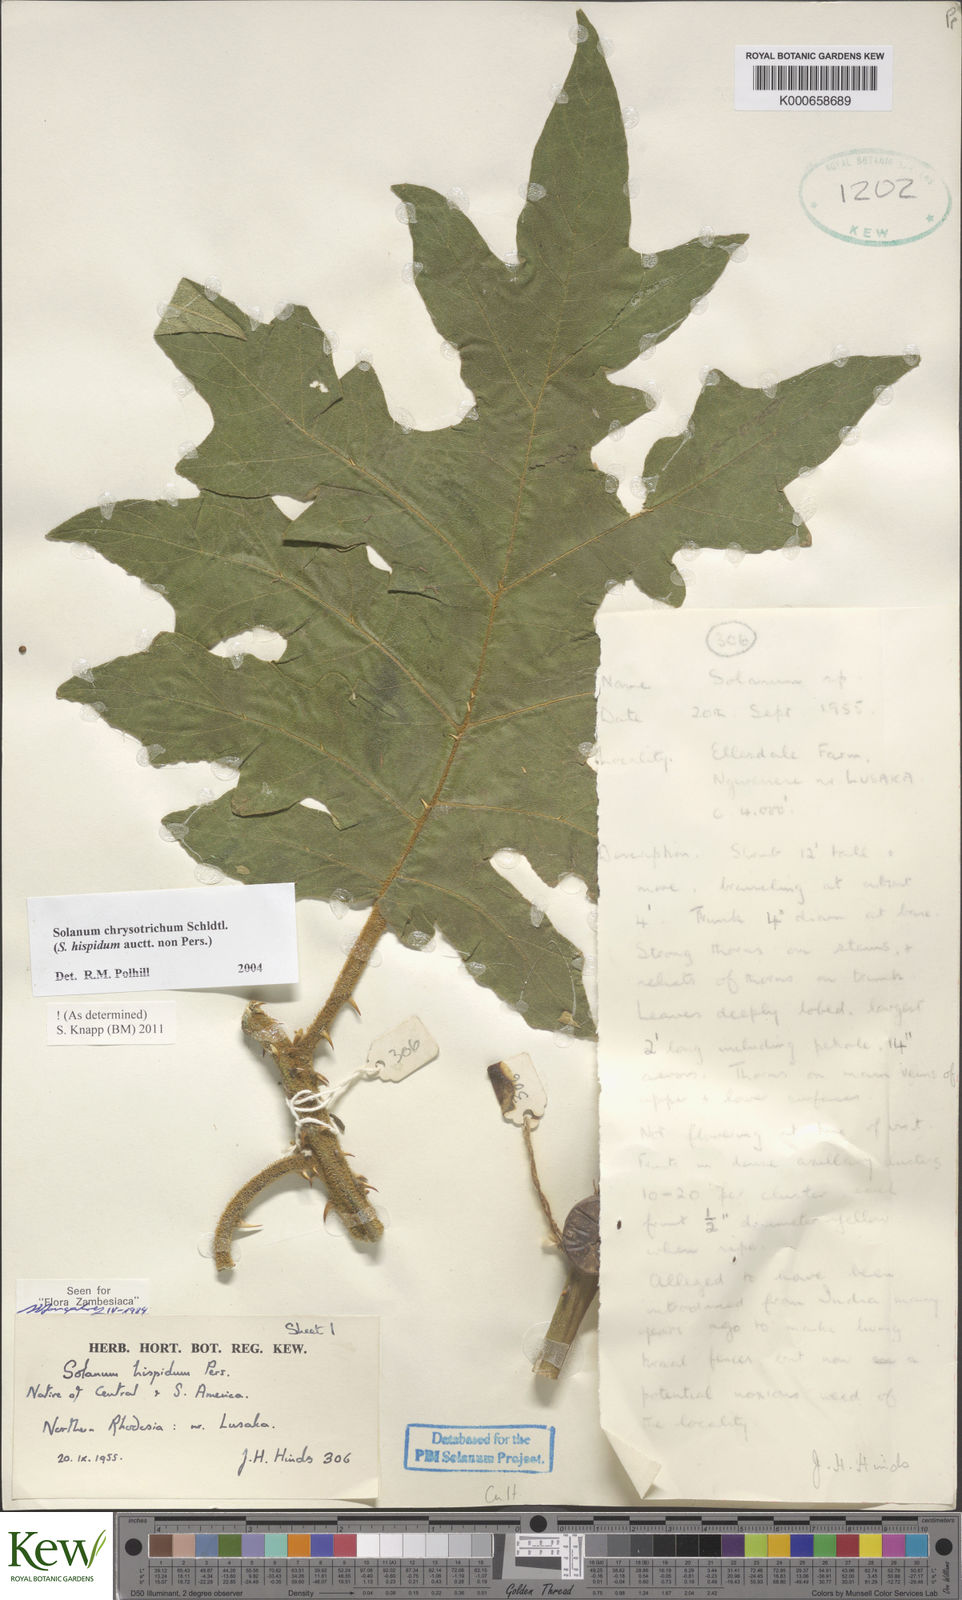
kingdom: Plantae
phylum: Tracheophyta
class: Magnoliopsida
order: Solanales
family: Solanaceae
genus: Solanum
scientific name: Solanum chrysotrichum
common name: Nightshade
